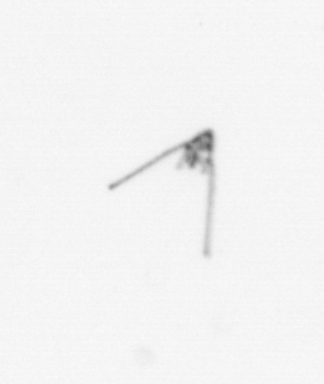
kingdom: Animalia
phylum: Echinodermata
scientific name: Echinodermata
